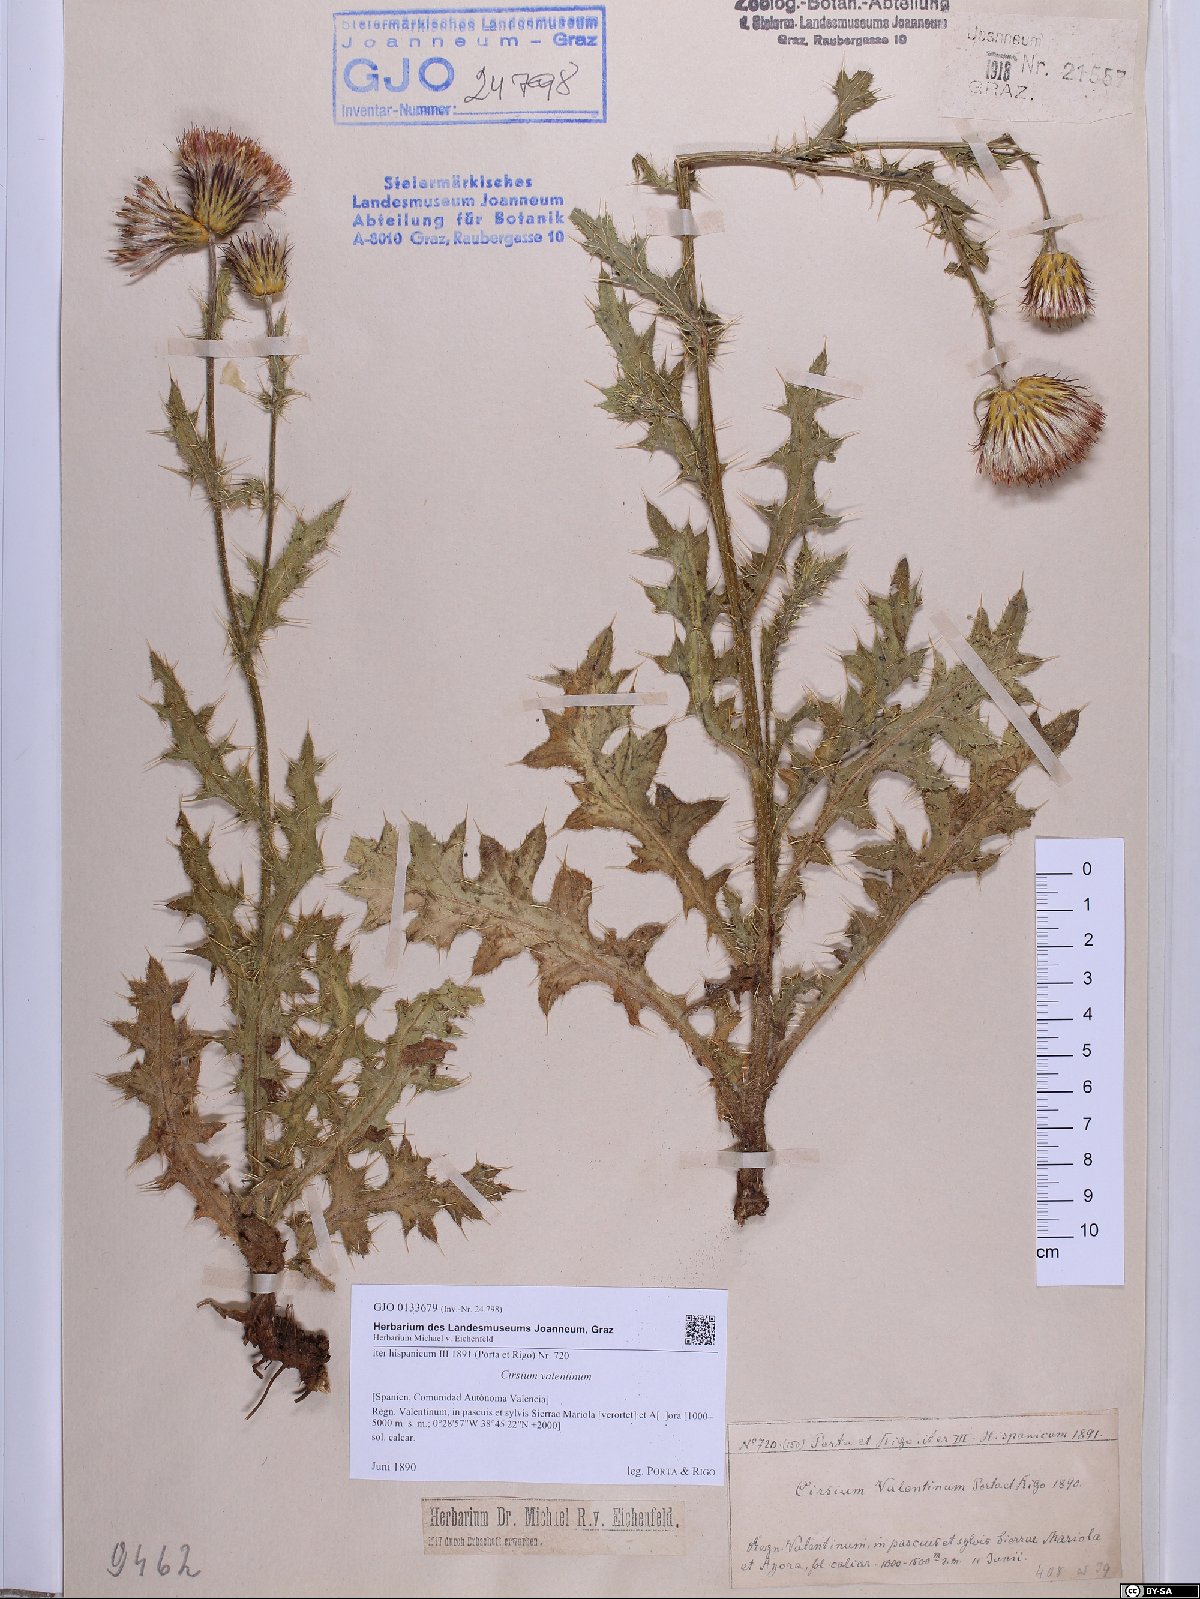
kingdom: Plantae
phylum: Tracheophyta
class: Magnoliopsida
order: Asterales
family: Asteraceae
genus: Cirsium
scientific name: Cirsium valentinum
